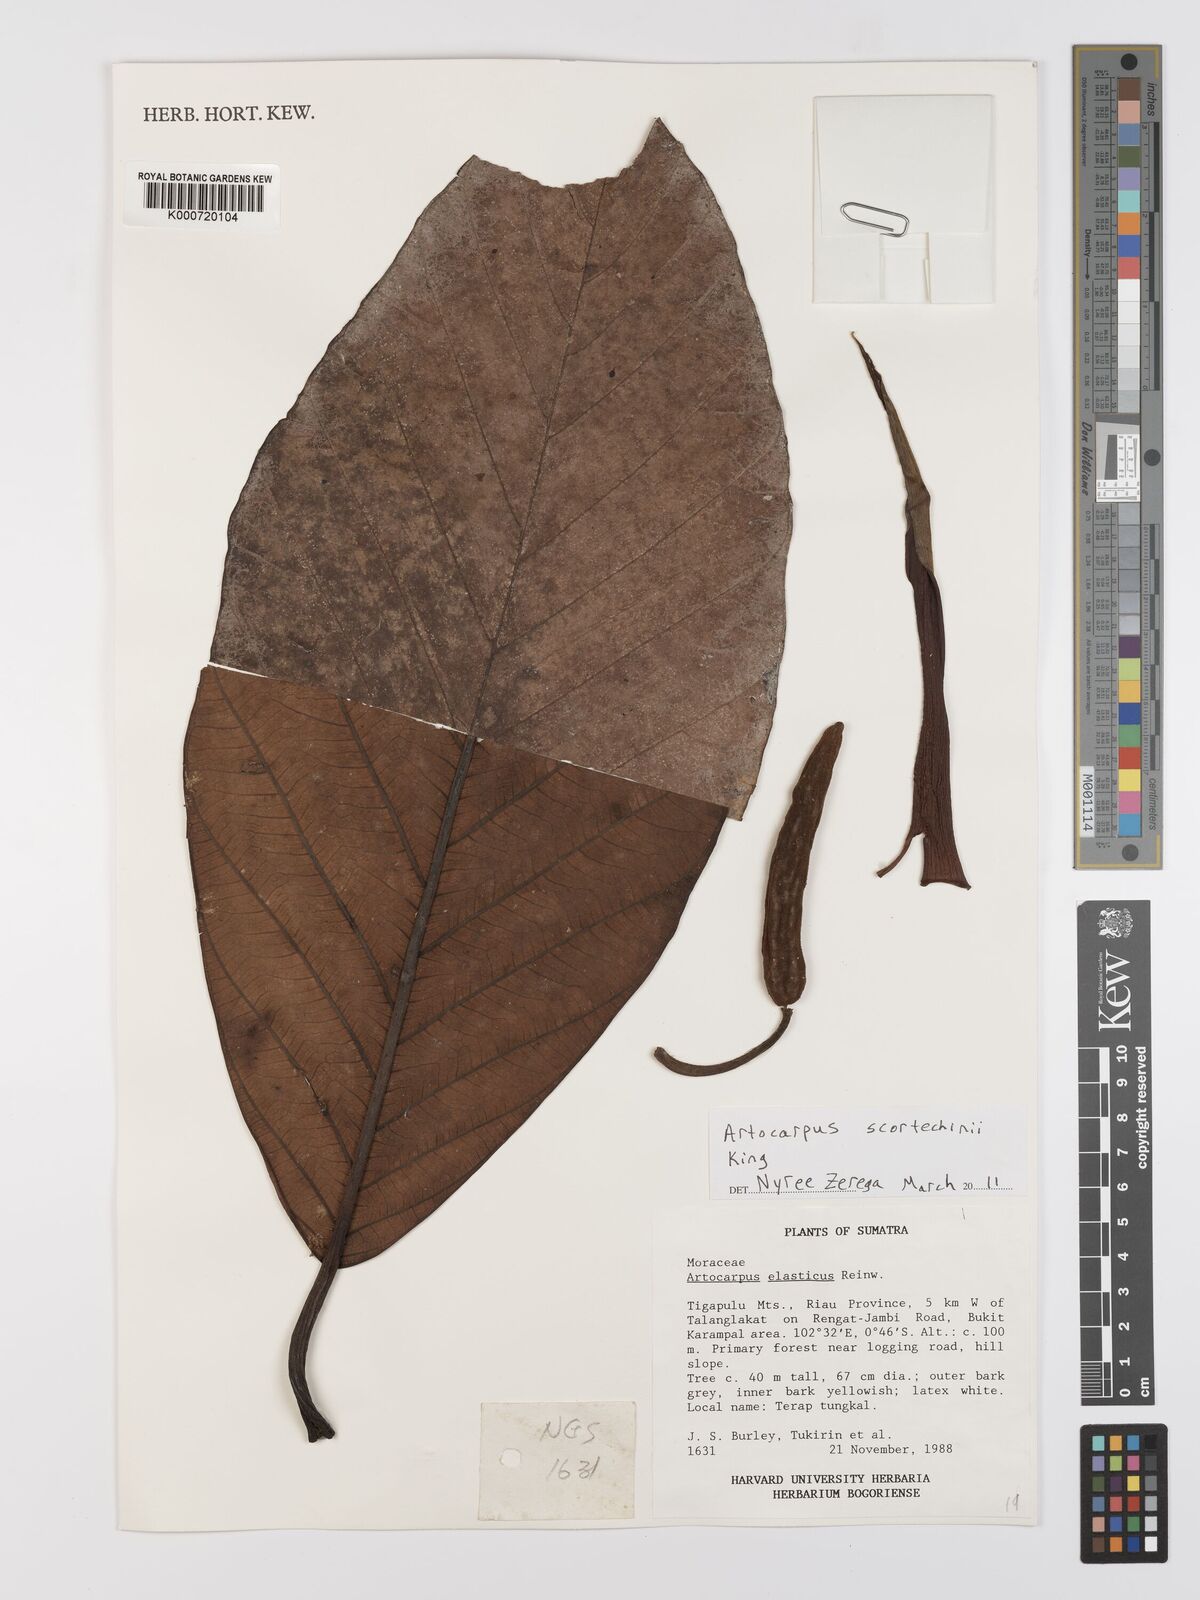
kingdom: Plantae
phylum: Tracheophyta
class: Magnoliopsida
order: Rosales
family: Moraceae
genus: Artocarpus
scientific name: Artocarpus elasticus
